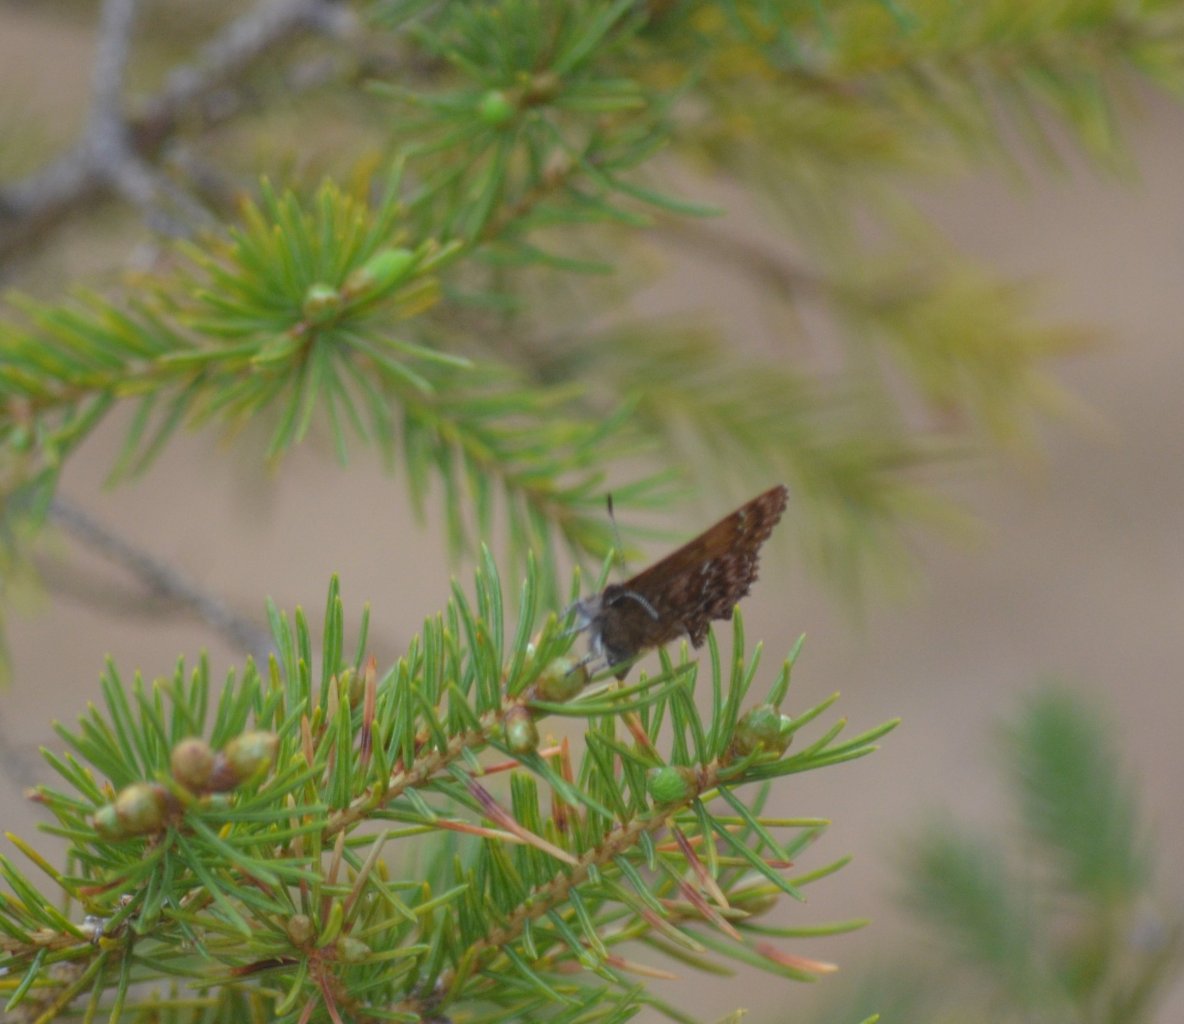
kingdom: Animalia
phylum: Arthropoda
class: Insecta
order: Lepidoptera
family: Lycaenidae
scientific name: Lycaenidae
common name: Gossamerwings
